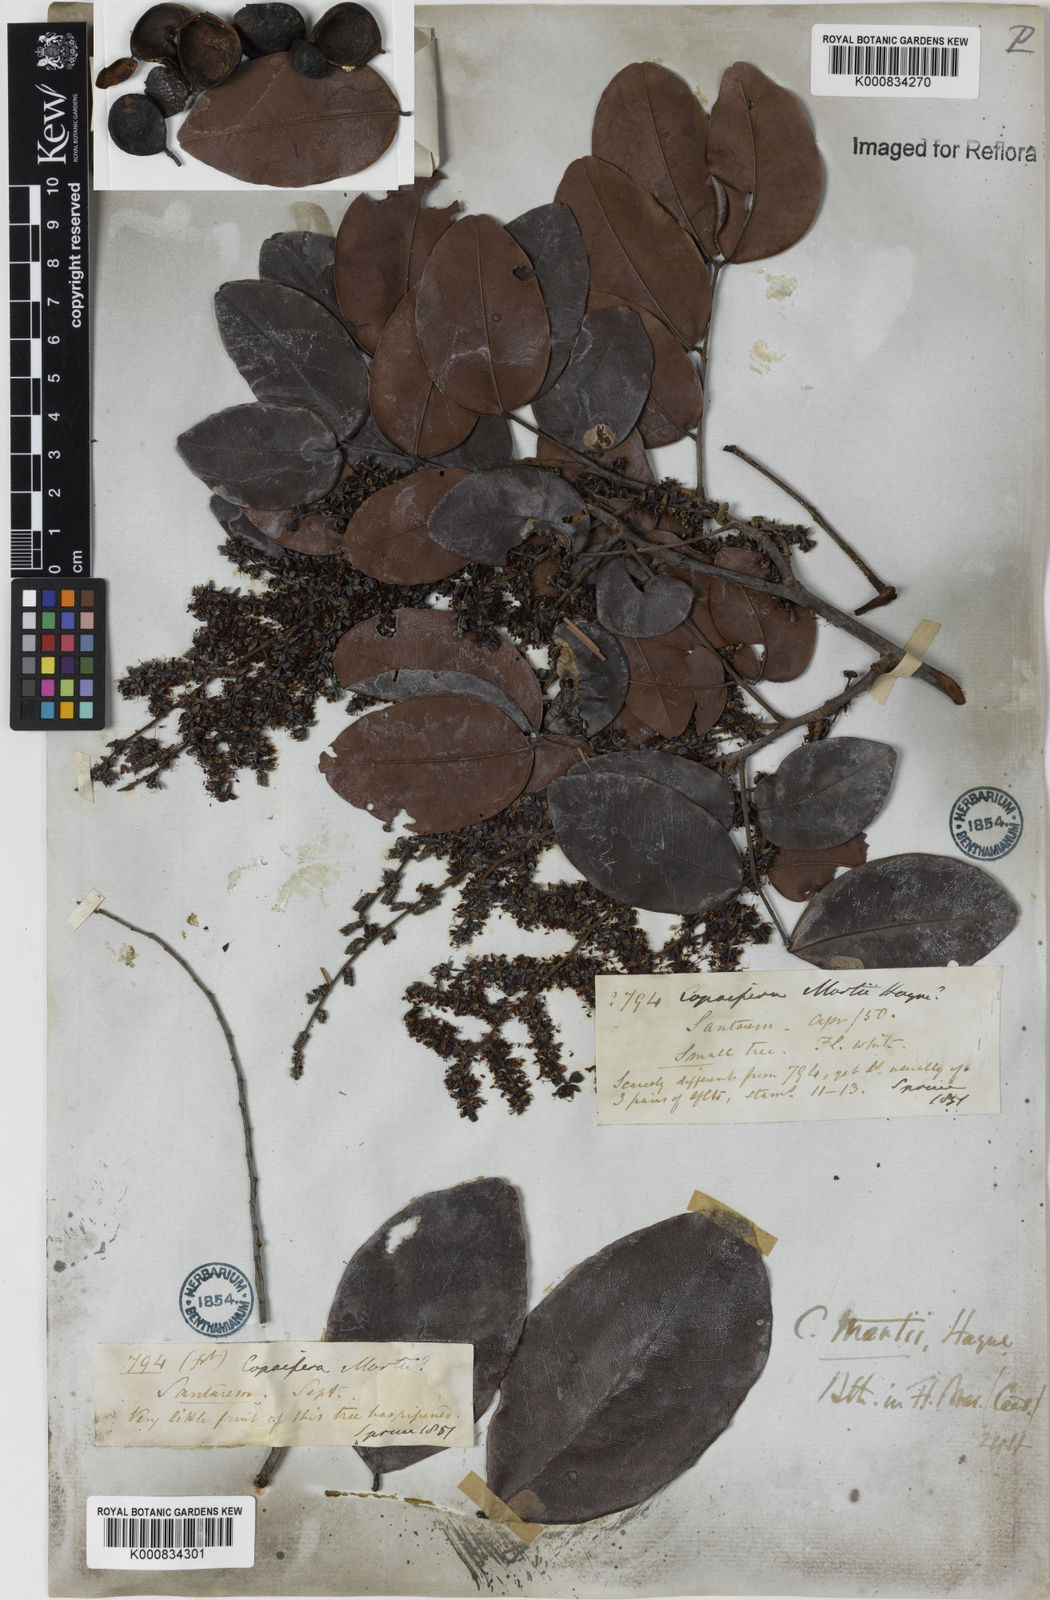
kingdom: Plantae
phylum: Tracheophyta
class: Magnoliopsida
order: Fabales
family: Fabaceae
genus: Copaifera
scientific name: Copaifera martii
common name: Copaiba
